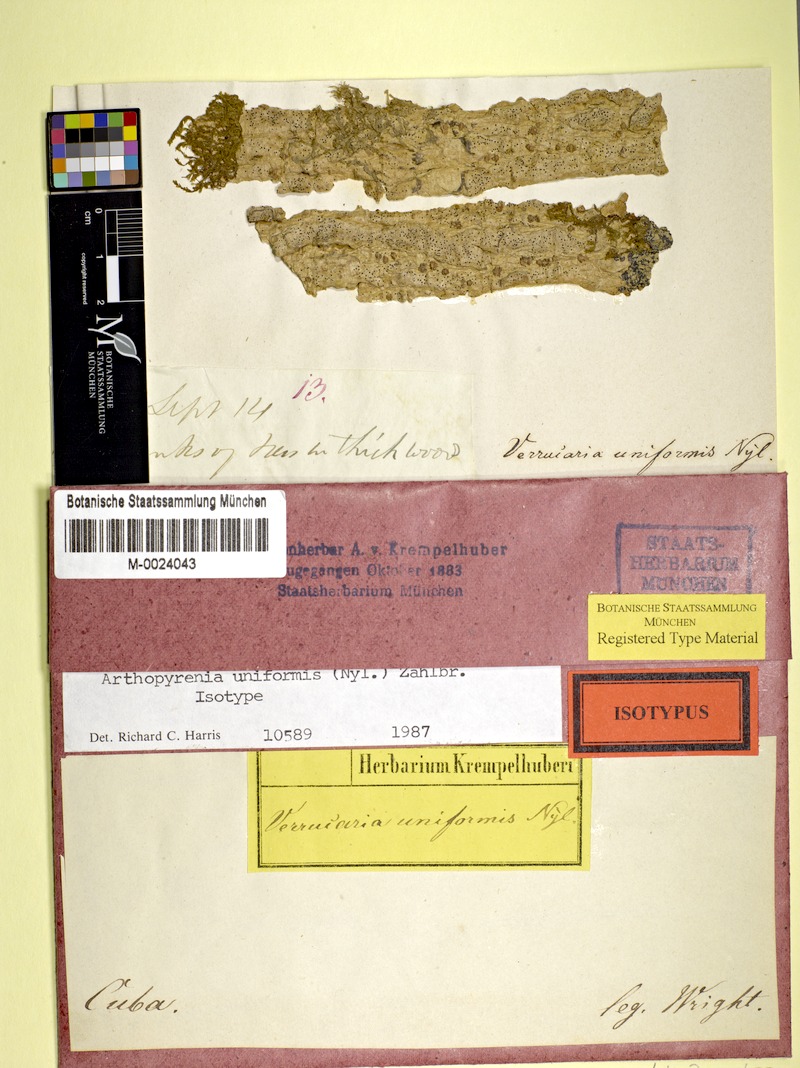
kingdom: Fungi
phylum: Ascomycota
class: Dothideomycetes
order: Pleosporales
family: Arthopyreniaceae
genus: Arthopyrenia
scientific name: Arthopyrenia uniformis
